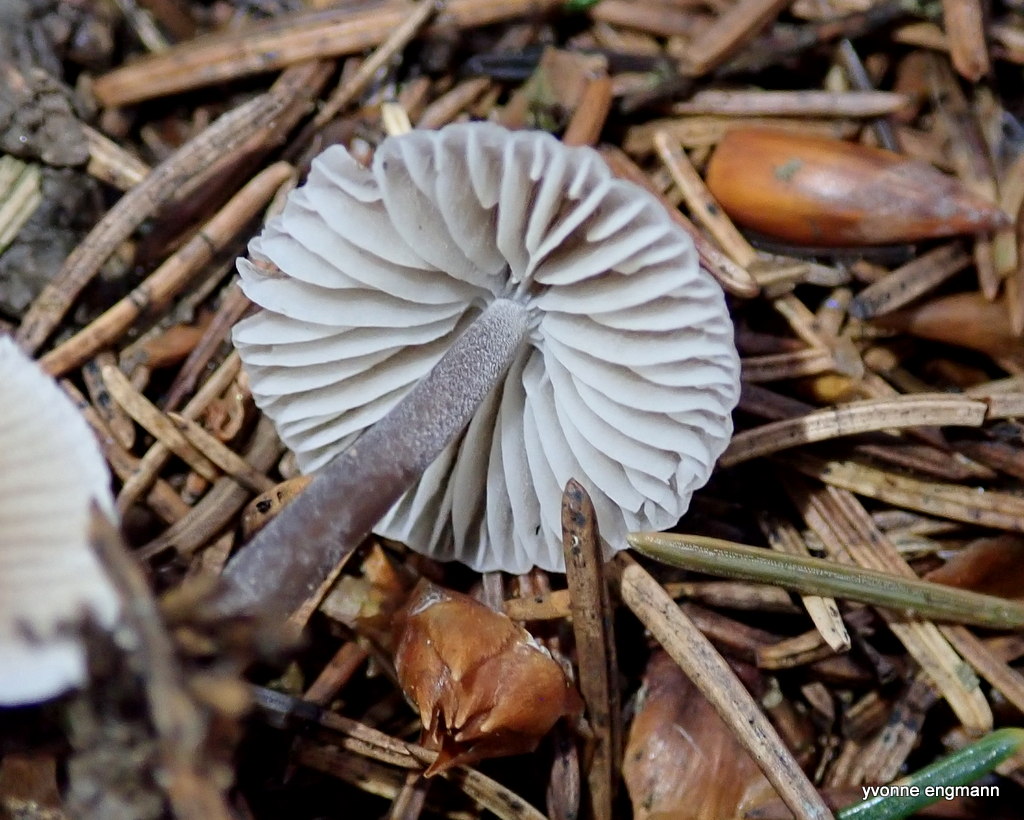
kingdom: Fungi
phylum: Basidiomycota
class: Agaricomycetes
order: Agaricales
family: Mycenaceae
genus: Mycena
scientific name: Mycena leptocephala
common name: klor-huesvamp
